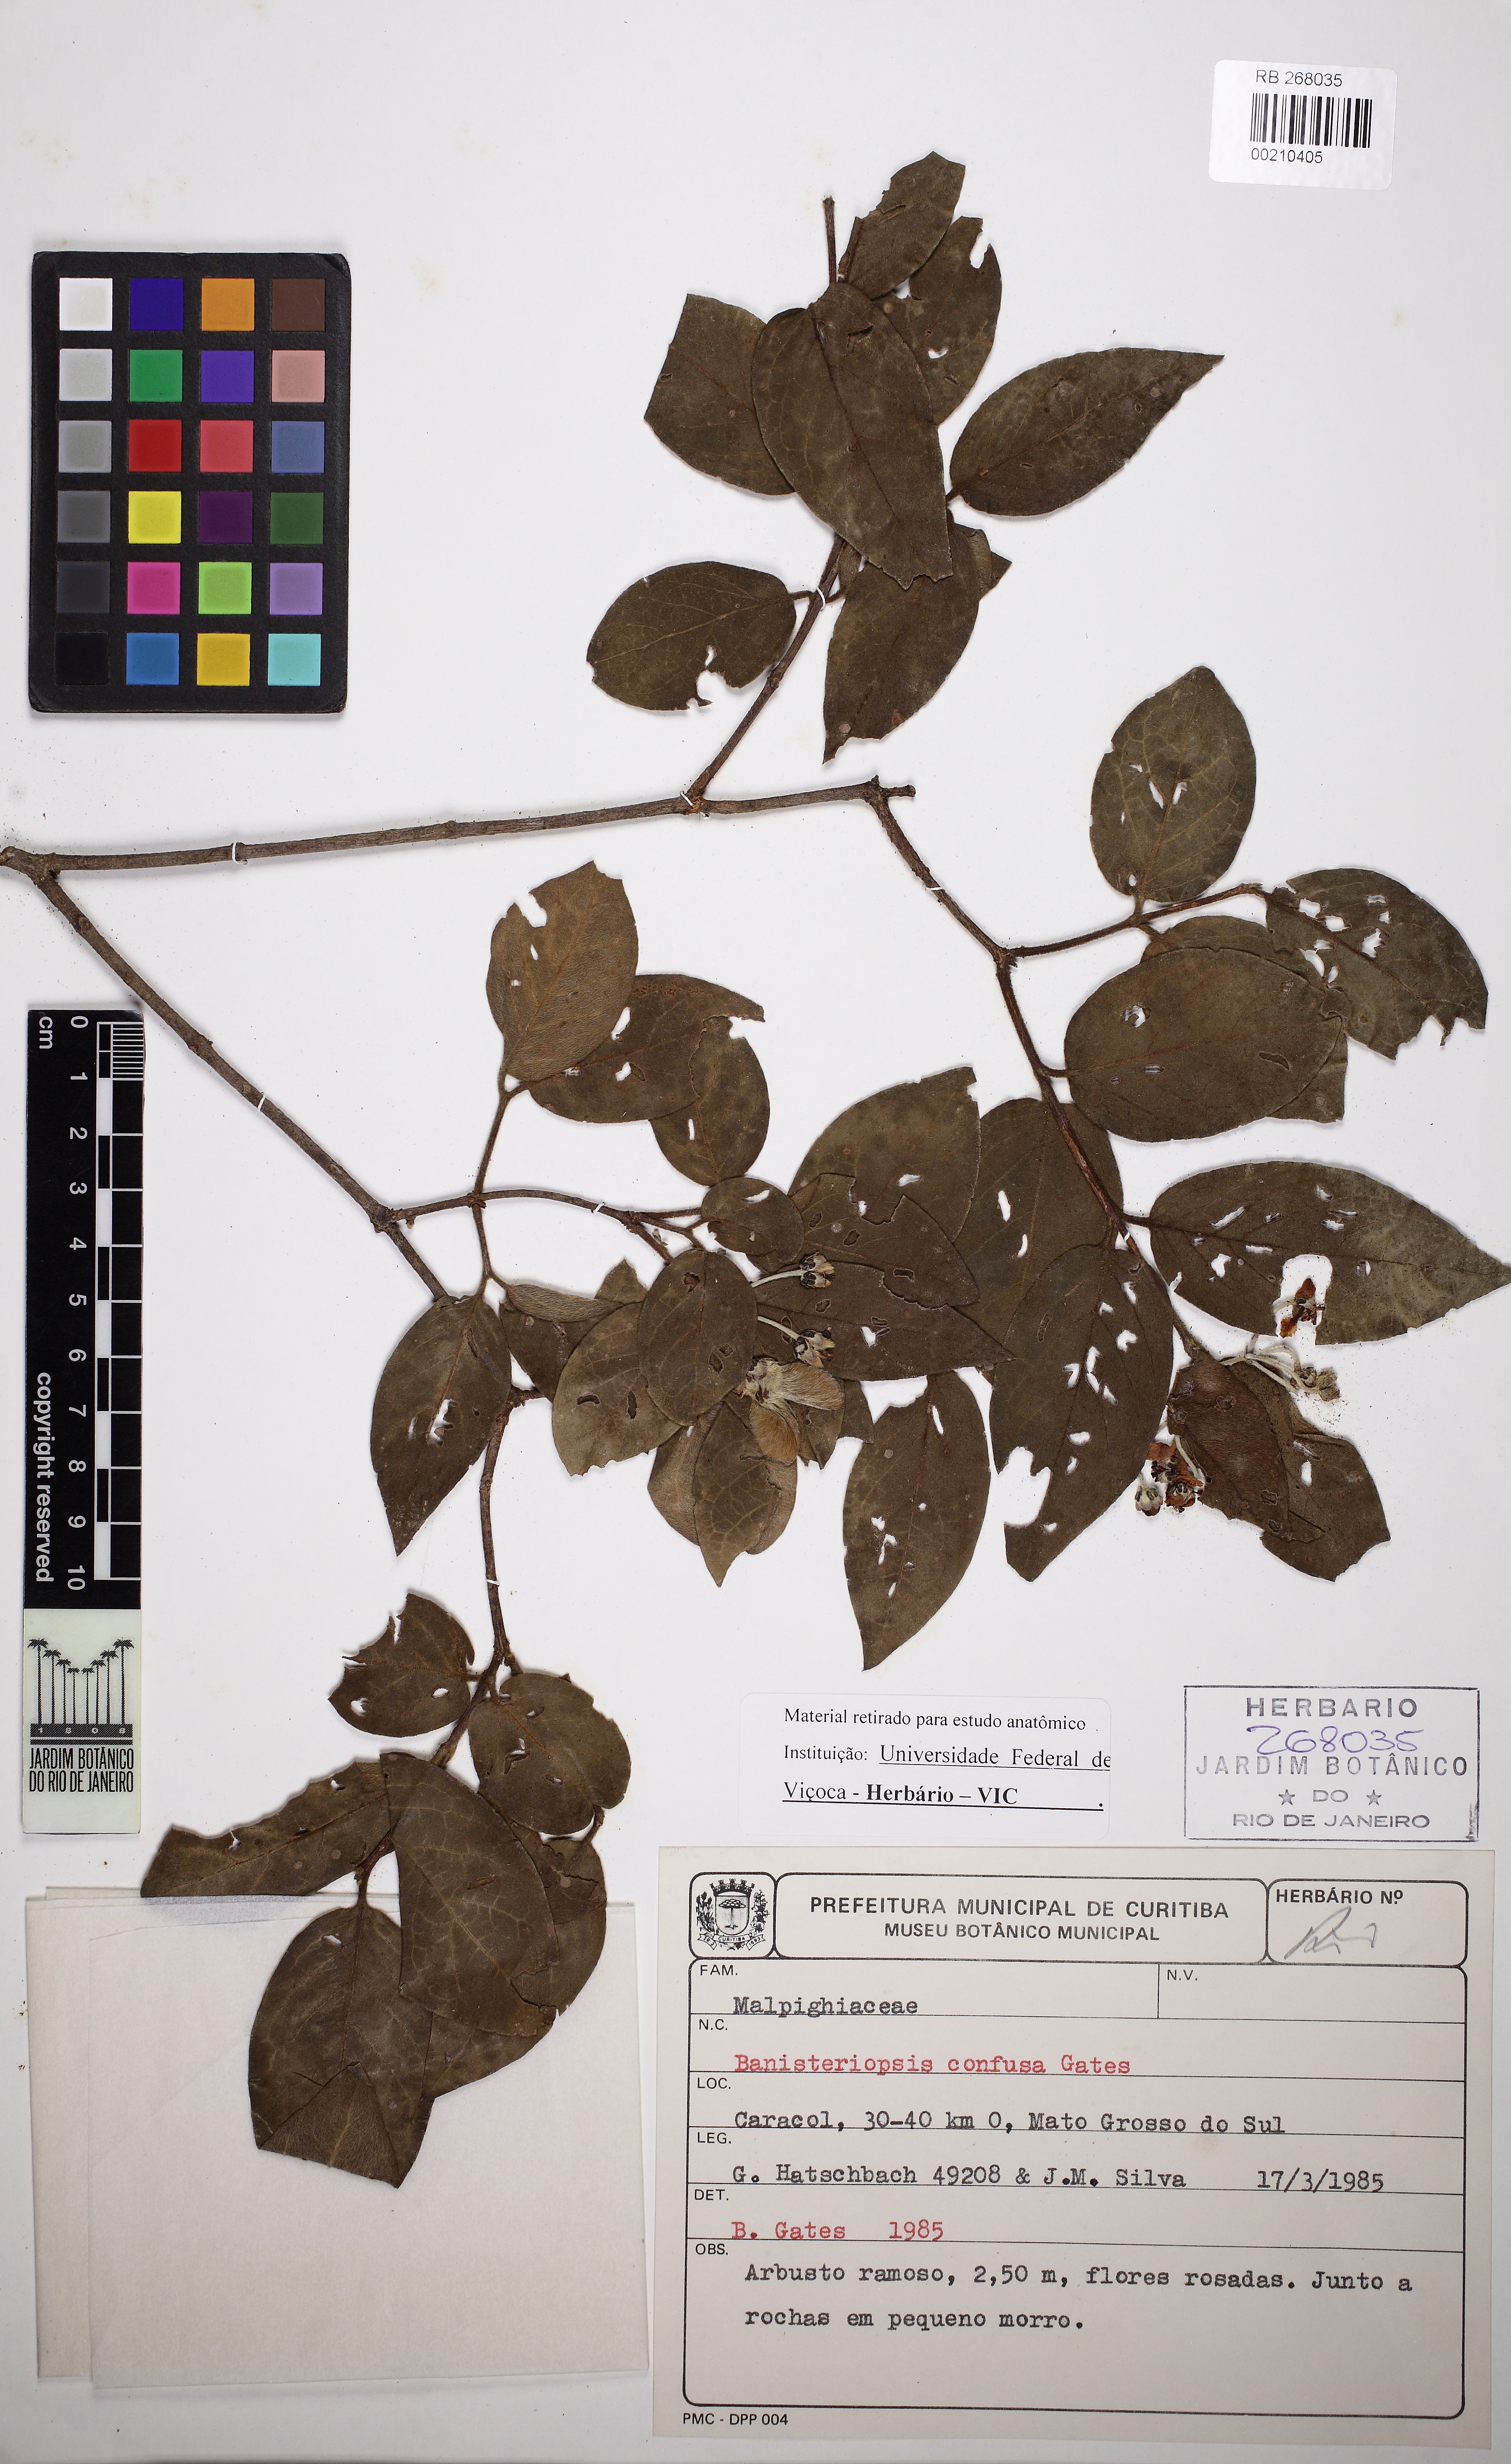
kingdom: Plantae
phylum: Tracheophyta
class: Magnoliopsida
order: Malpighiales
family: Malpighiaceae
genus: Banisteriopsis
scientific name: Banisteriopsis confusa
